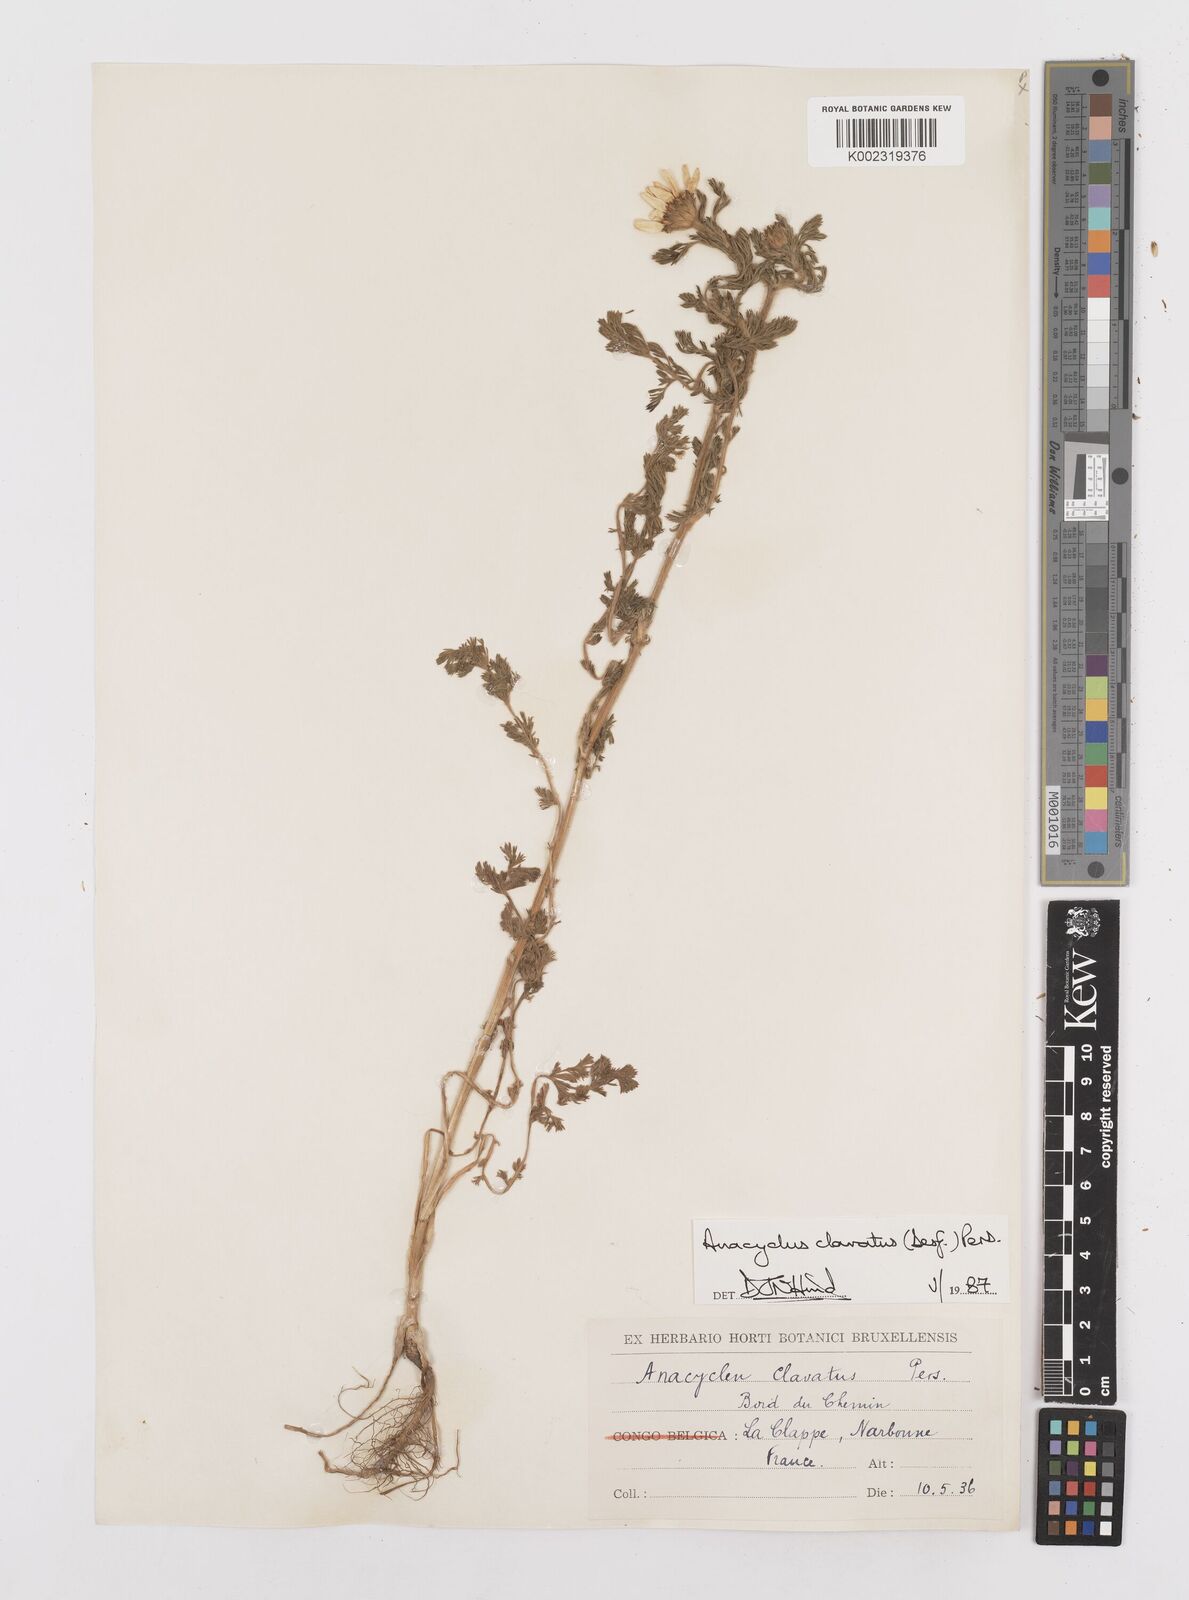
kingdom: Plantae
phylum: Tracheophyta
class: Magnoliopsida
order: Asterales
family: Asteraceae
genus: Anacyclus
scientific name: Anacyclus clavatus
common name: Whitebuttons
